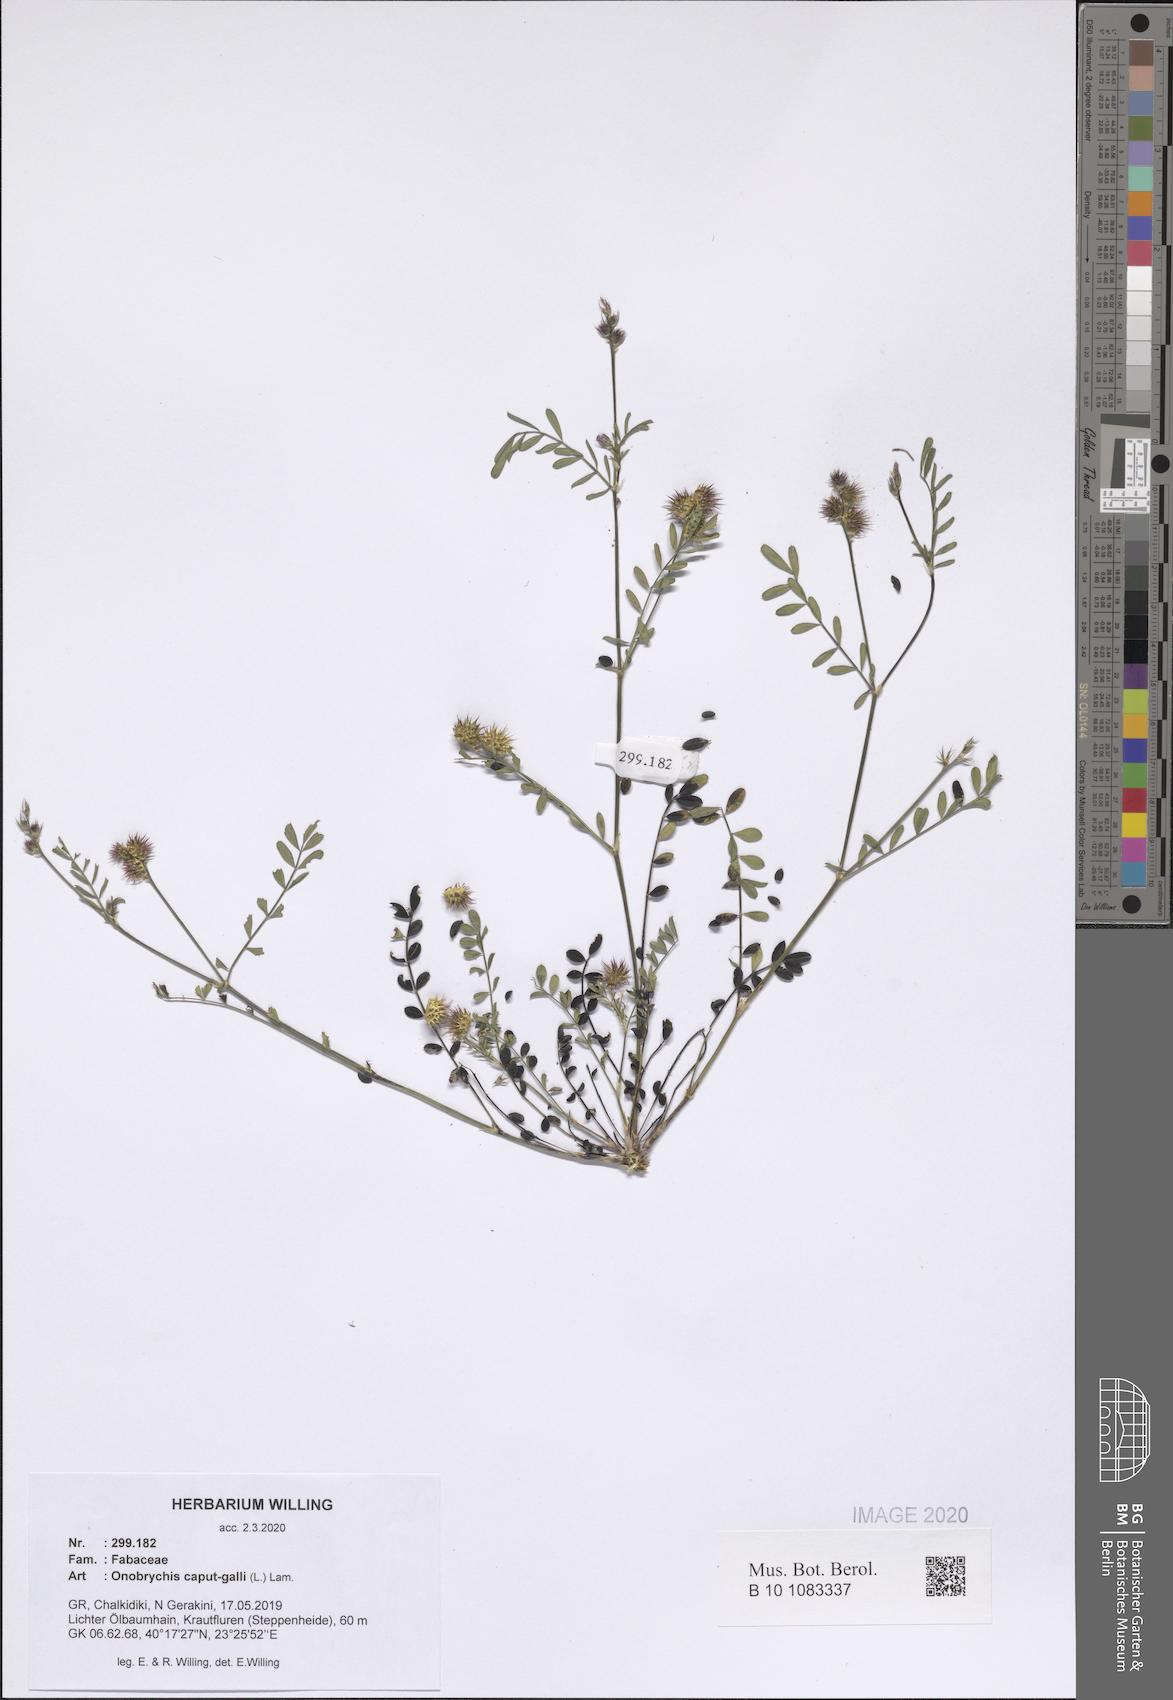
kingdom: Plantae
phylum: Tracheophyta
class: Magnoliopsida
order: Fabales
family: Fabaceae
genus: Onobrychis
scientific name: Onobrychis caput-galli
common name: Cockscomb sainfoin
